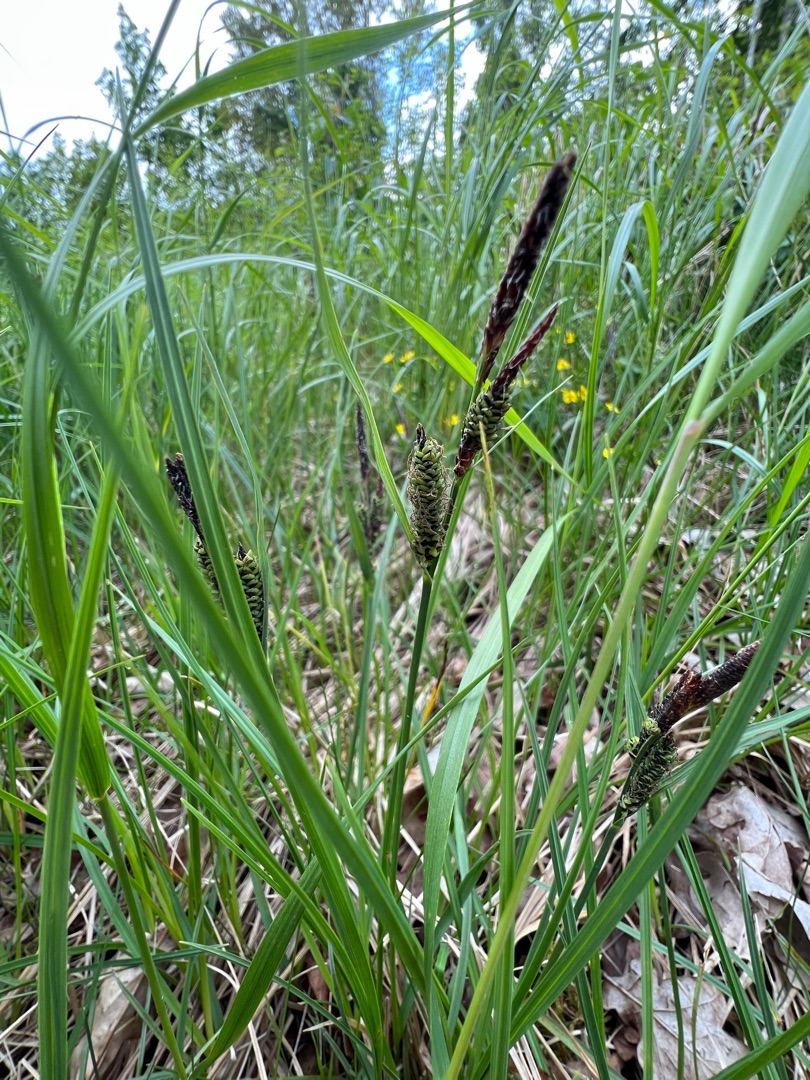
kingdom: Plantae
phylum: Tracheophyta
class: Liliopsida
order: Poales
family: Cyperaceae
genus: Carex
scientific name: Carex nigra
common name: Almindelig star
